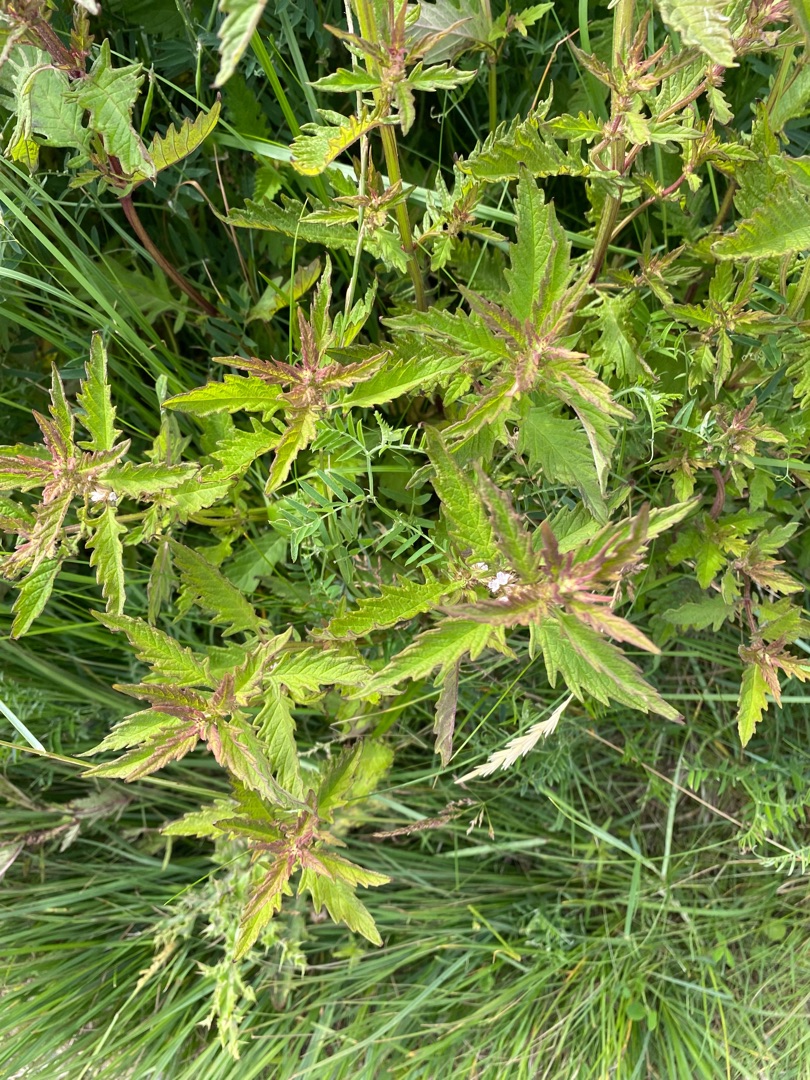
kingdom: Plantae
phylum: Tracheophyta
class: Magnoliopsida
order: Lamiales
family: Lamiaceae
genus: Lycopus
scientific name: Lycopus europaeus
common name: Sværtevæld
